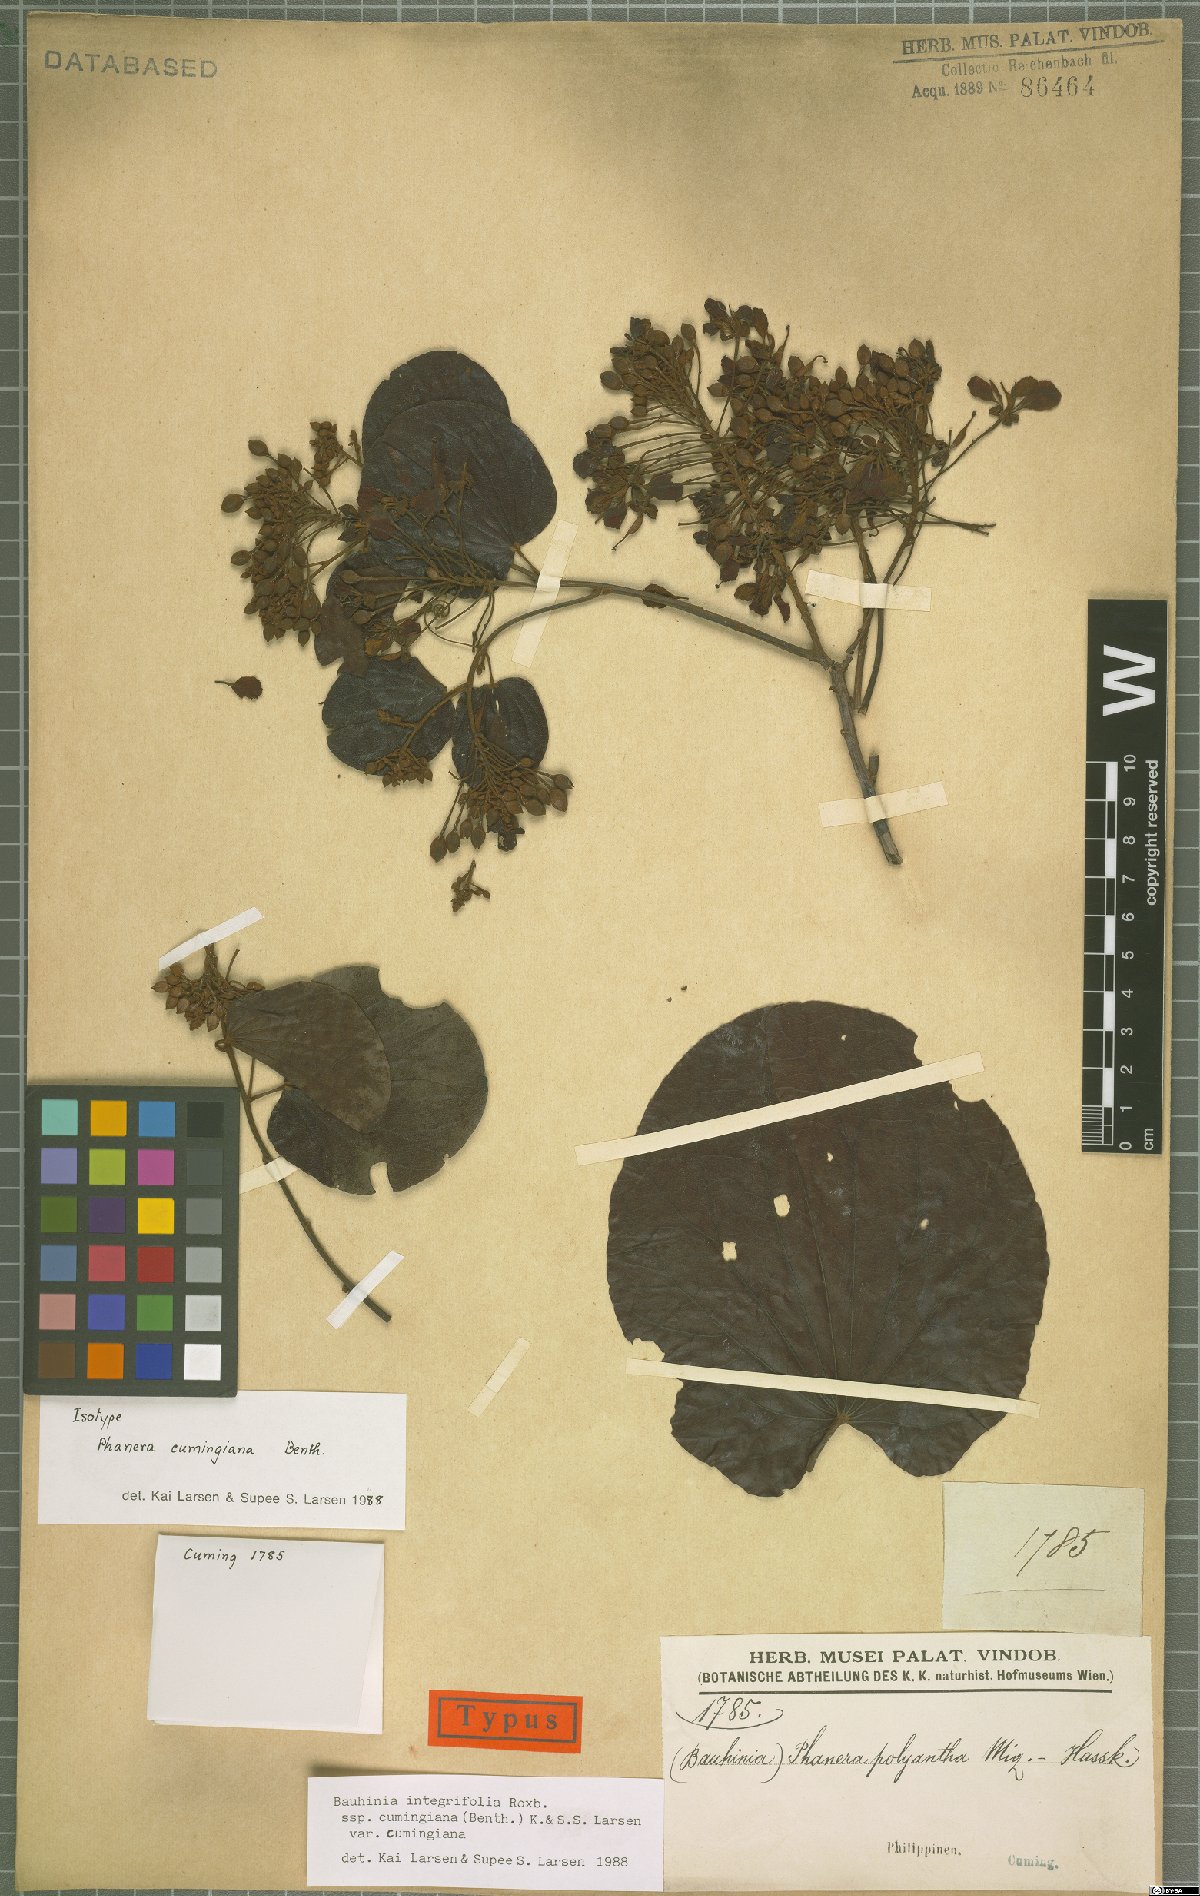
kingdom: Plantae
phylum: Tracheophyta
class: Magnoliopsida
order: Fabales
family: Fabaceae
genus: Phanera
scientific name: Phanera integrifolia
